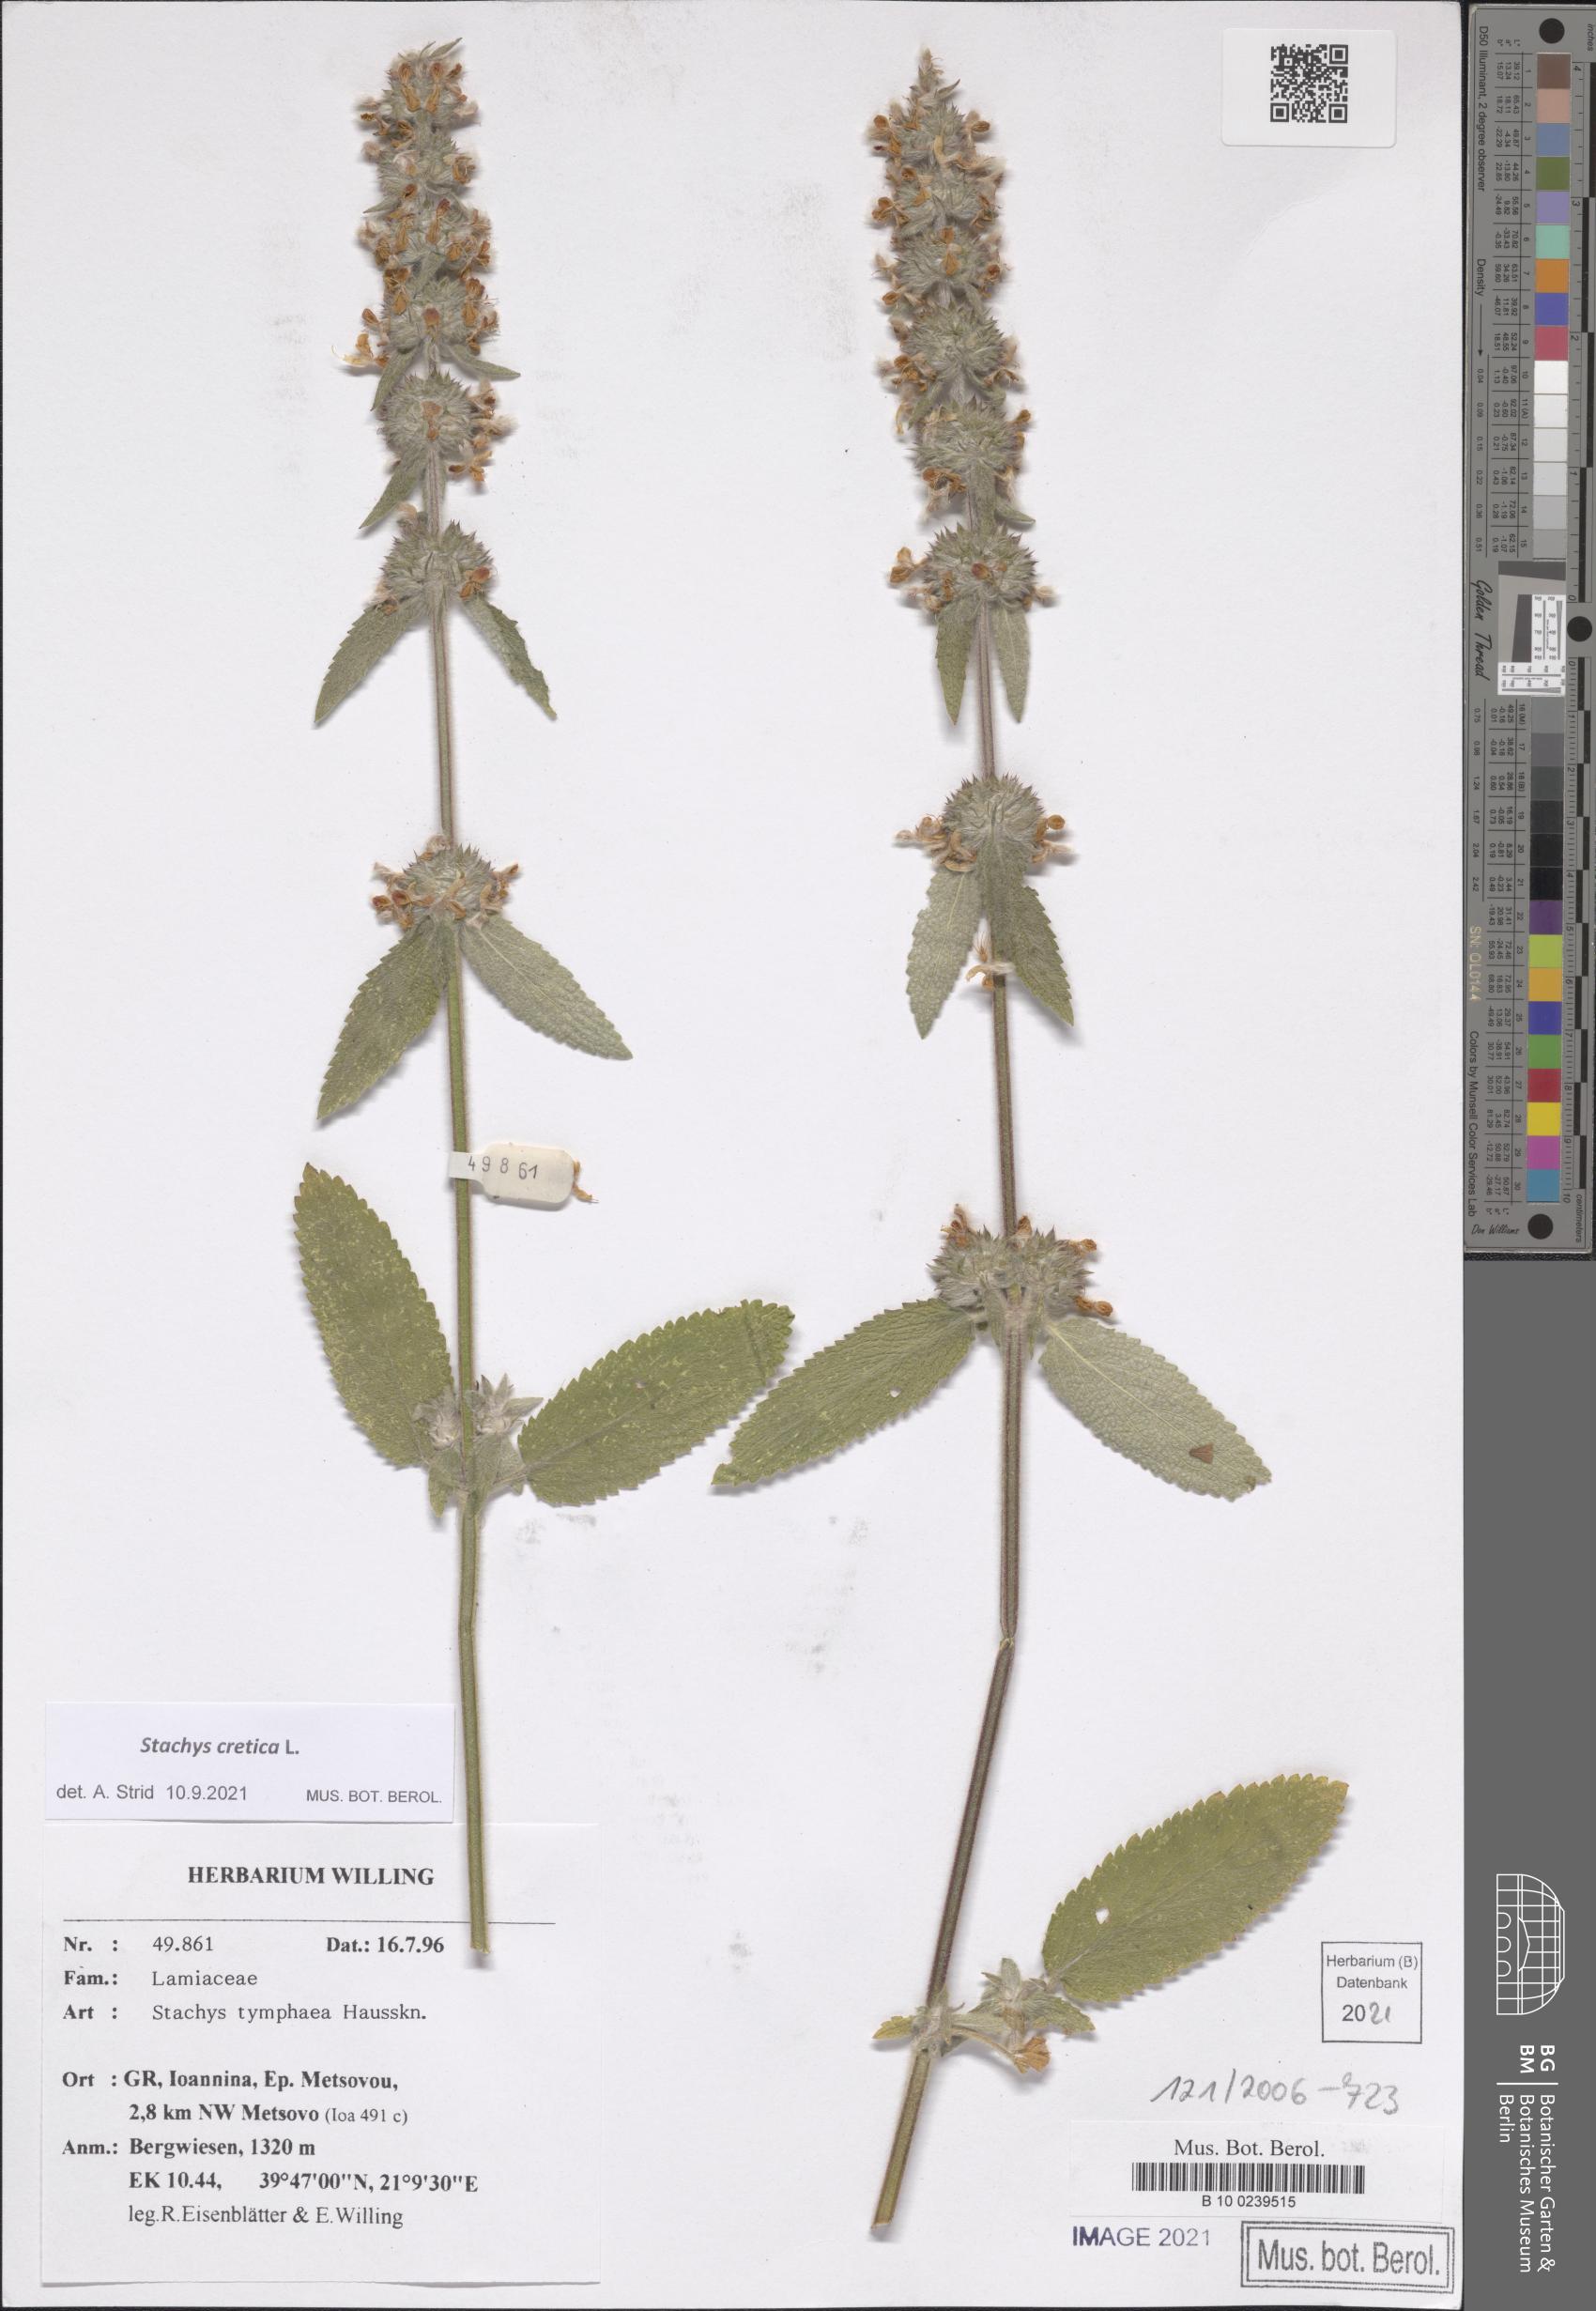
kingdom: Plantae
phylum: Tracheophyta
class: Magnoliopsida
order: Lamiales
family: Lamiaceae
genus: Stachys
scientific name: Stachys cretica
